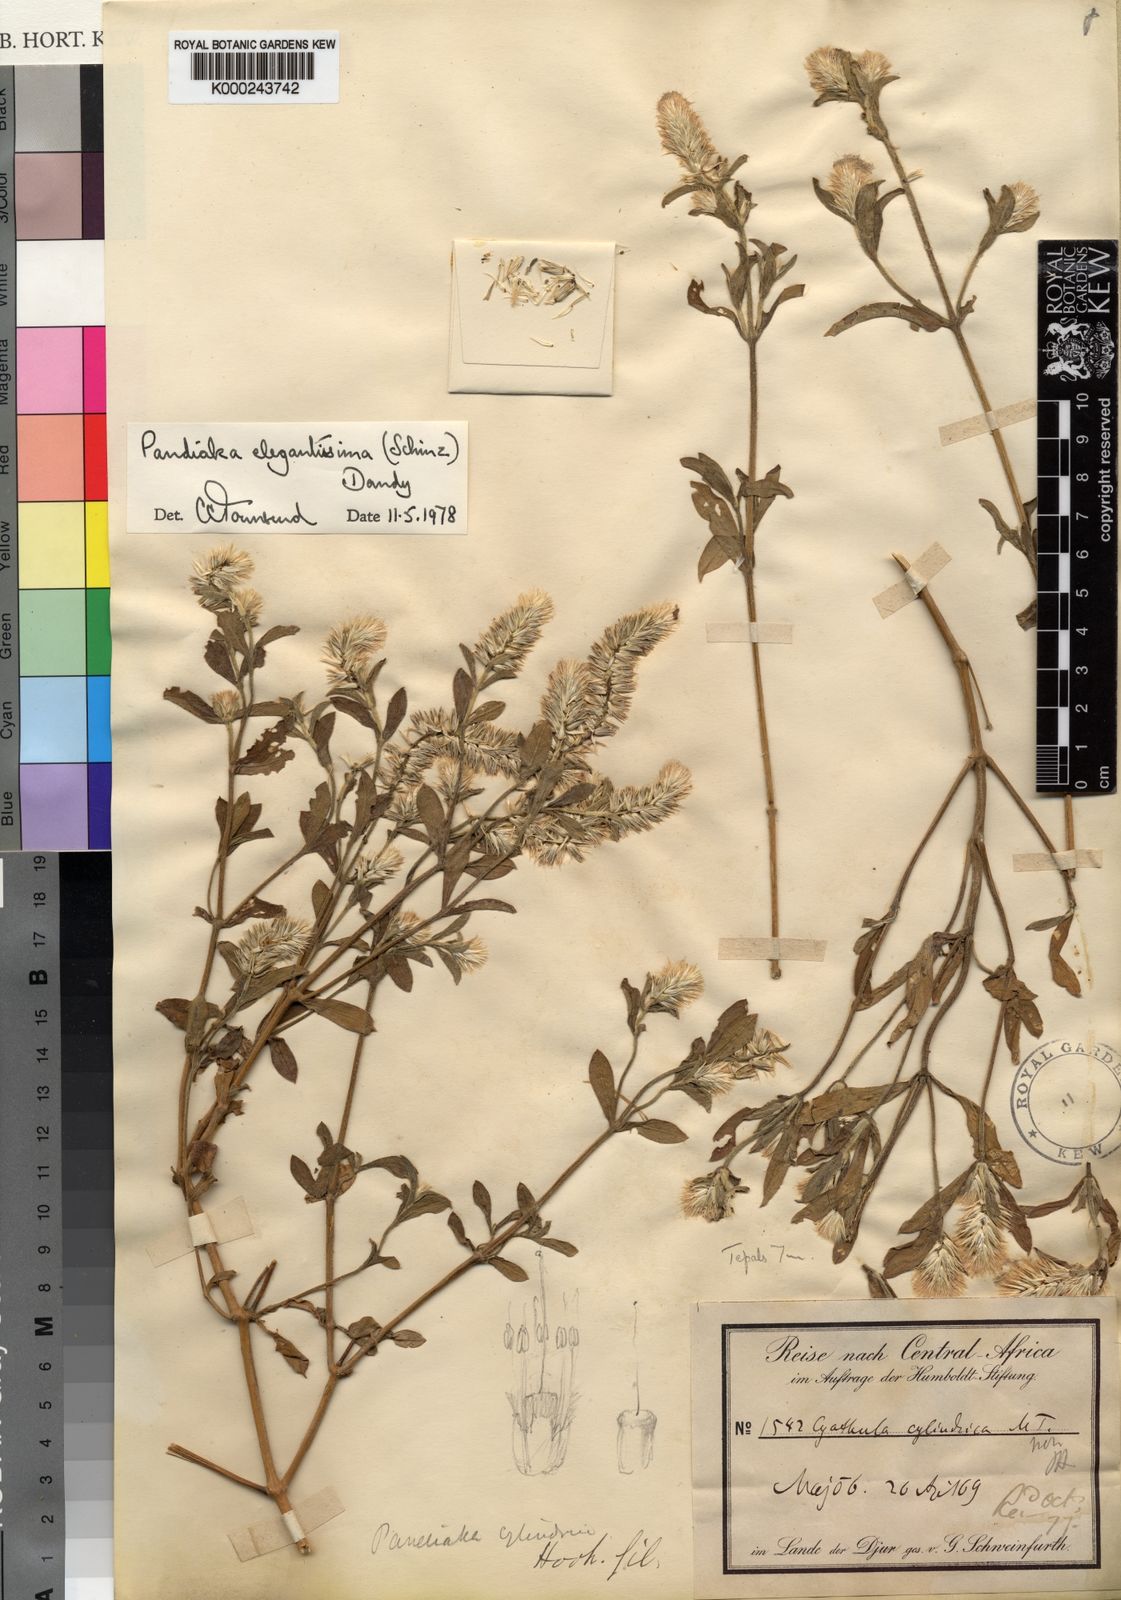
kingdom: Plantae
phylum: Tracheophyta
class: Magnoliopsida
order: Caryophyllales
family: Amaranthaceae
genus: Pandiaka
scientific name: Pandiaka elegantissima
